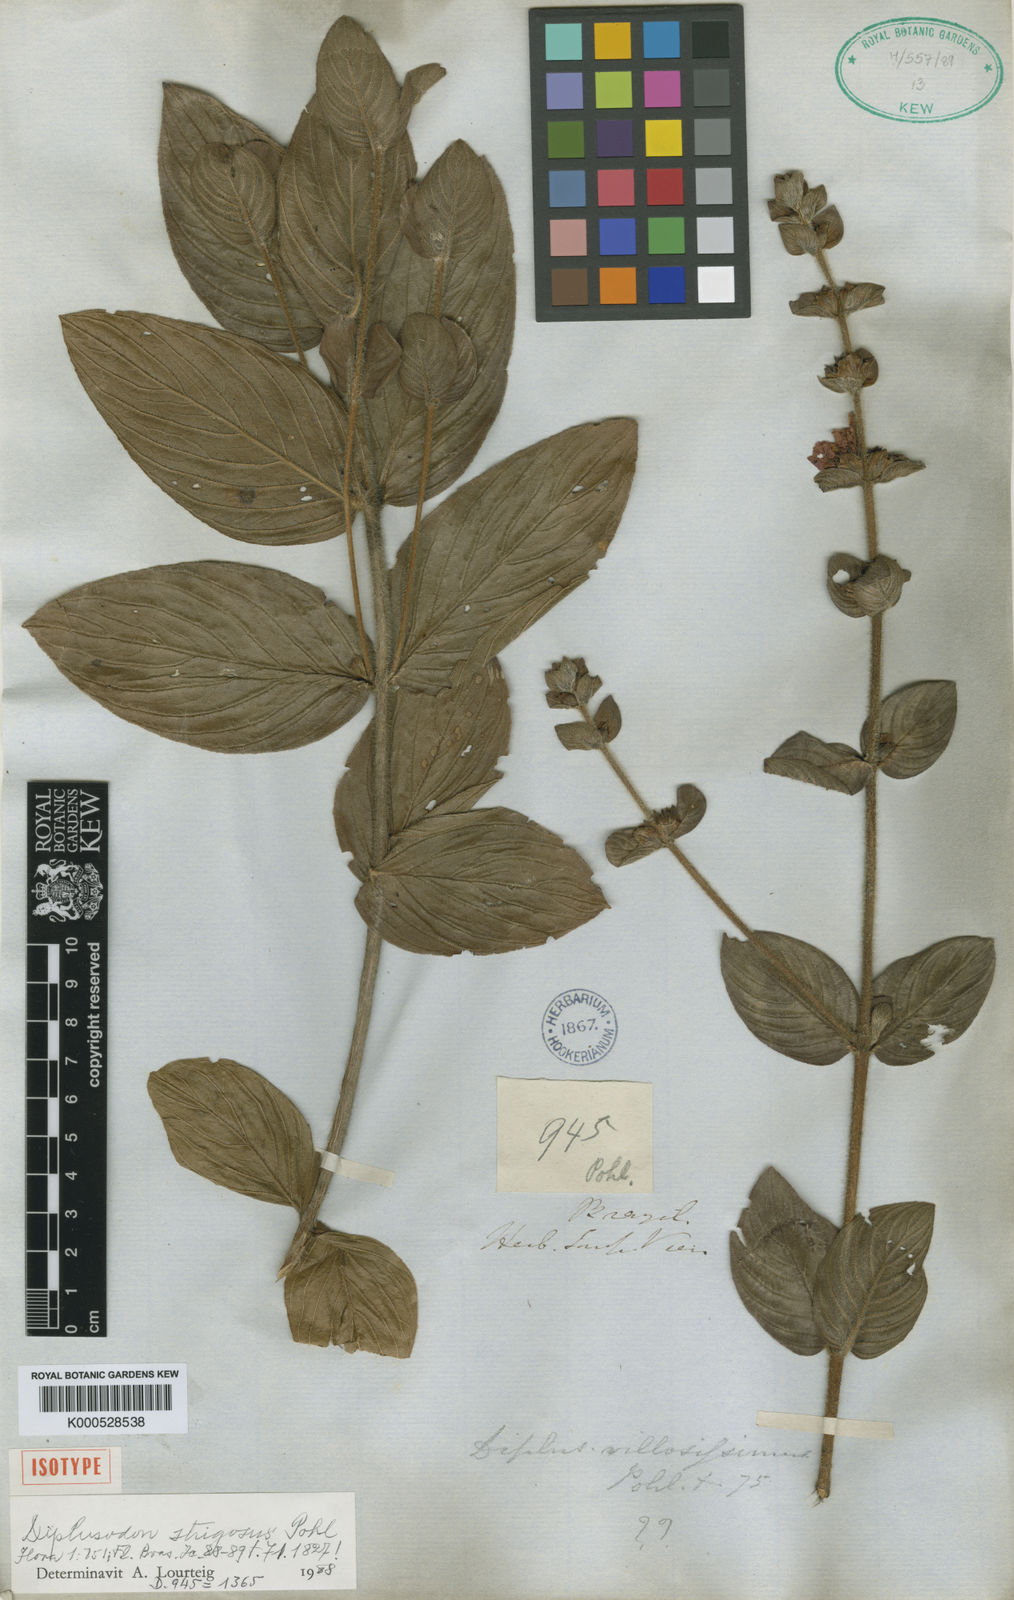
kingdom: Plantae
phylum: Tracheophyta
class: Magnoliopsida
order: Myrtales
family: Lythraceae
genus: Diplusodon
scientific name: Diplusodon villosissimus
